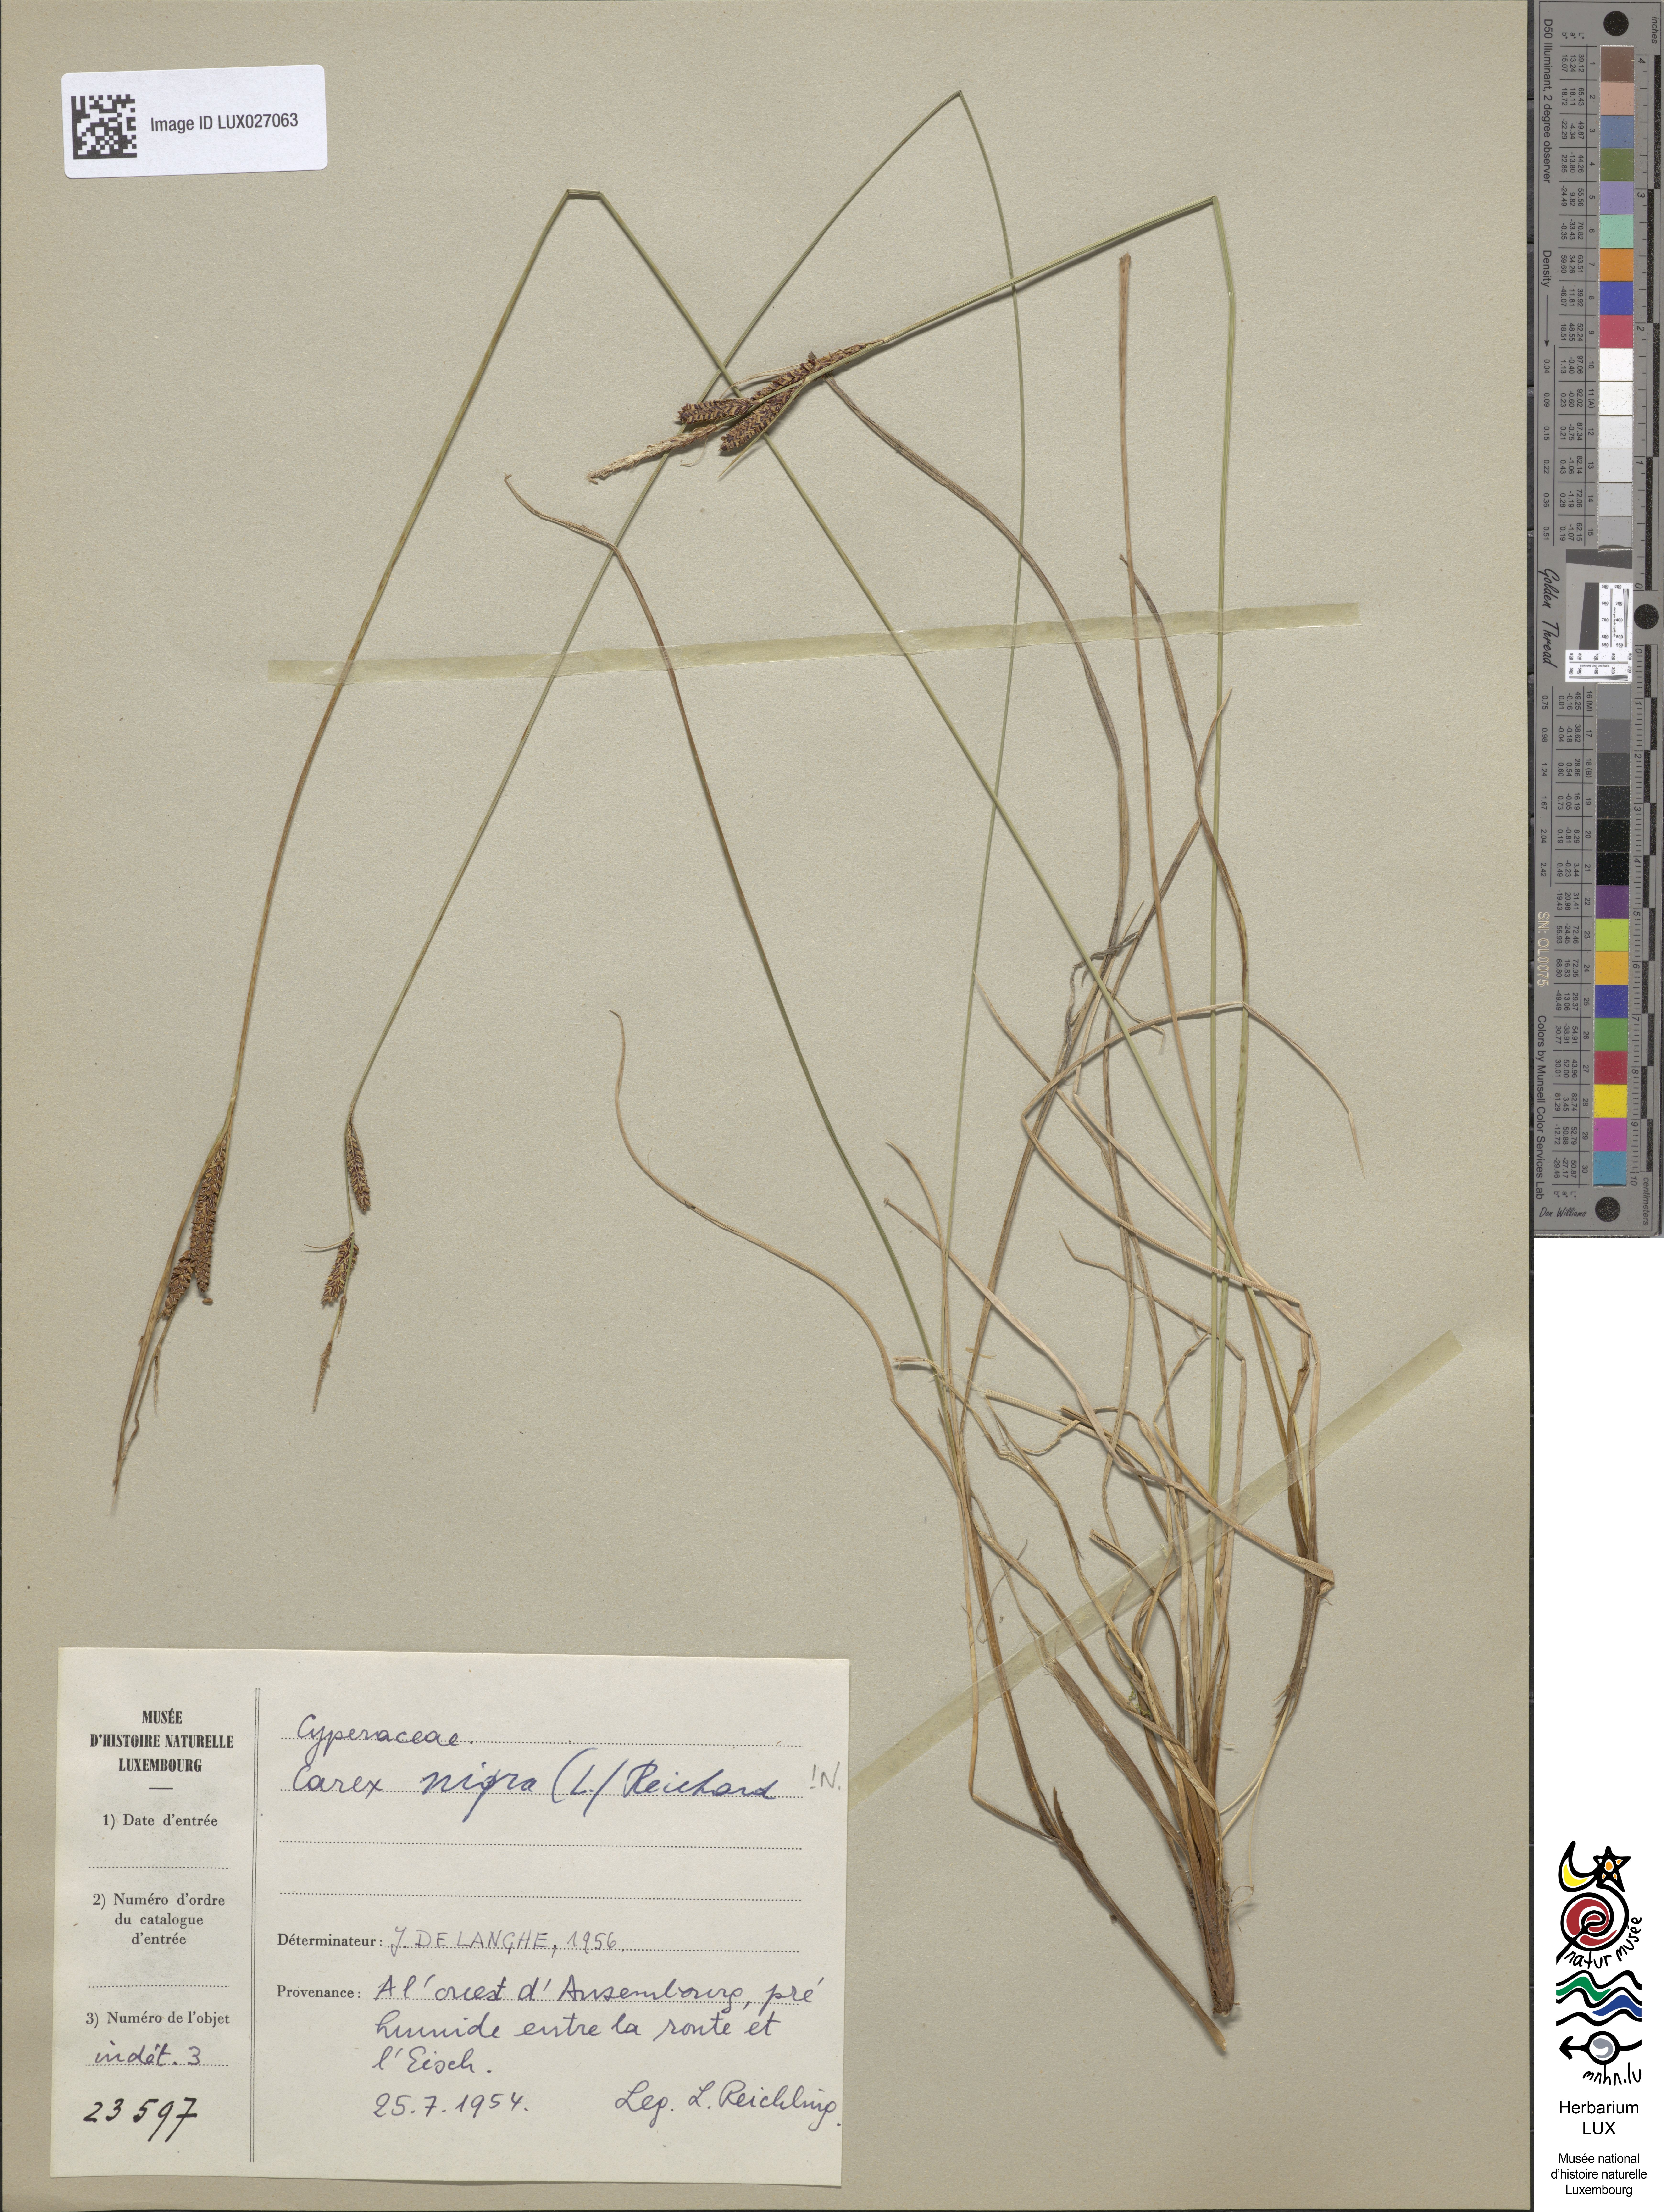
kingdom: Plantae
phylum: Tracheophyta
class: Liliopsida
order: Poales
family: Cyperaceae
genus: Carex
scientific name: Carex nigra
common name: Common sedge
